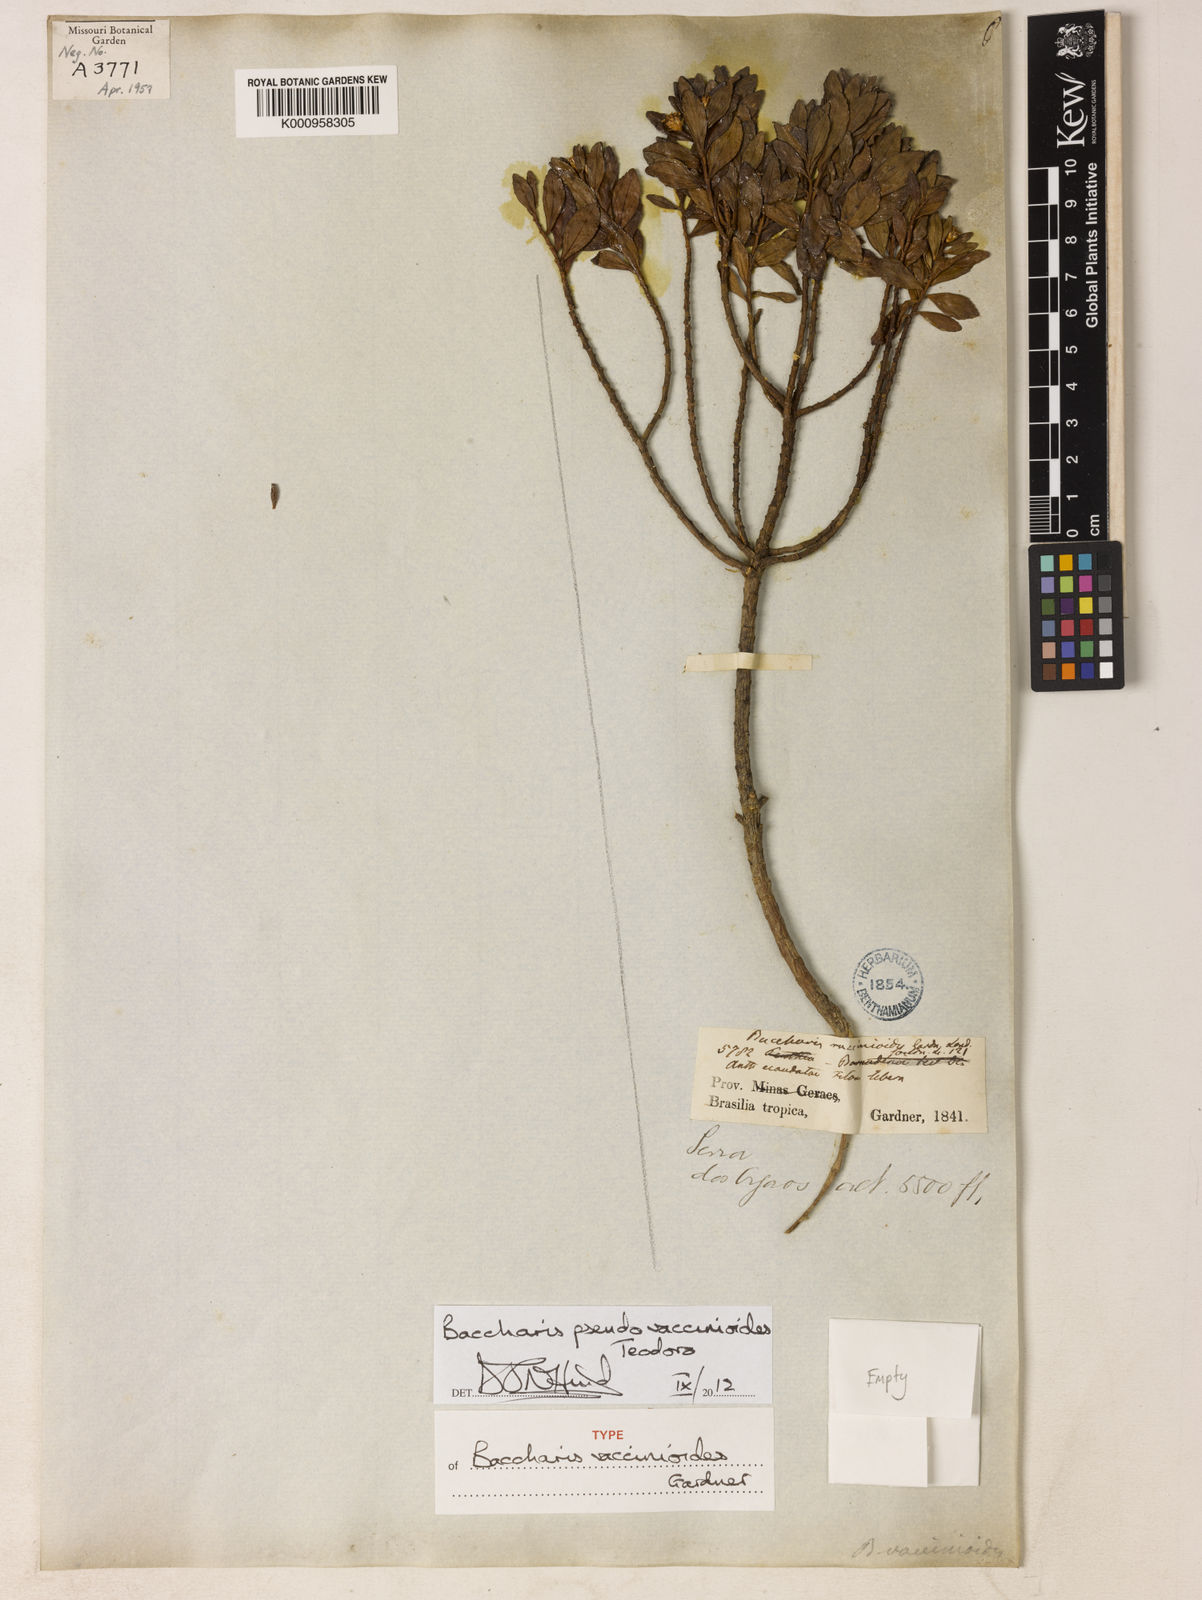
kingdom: Plantae
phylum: Tracheophyta
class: Magnoliopsida
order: Asterales
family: Asteraceae
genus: Baccharis
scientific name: Baccharis
